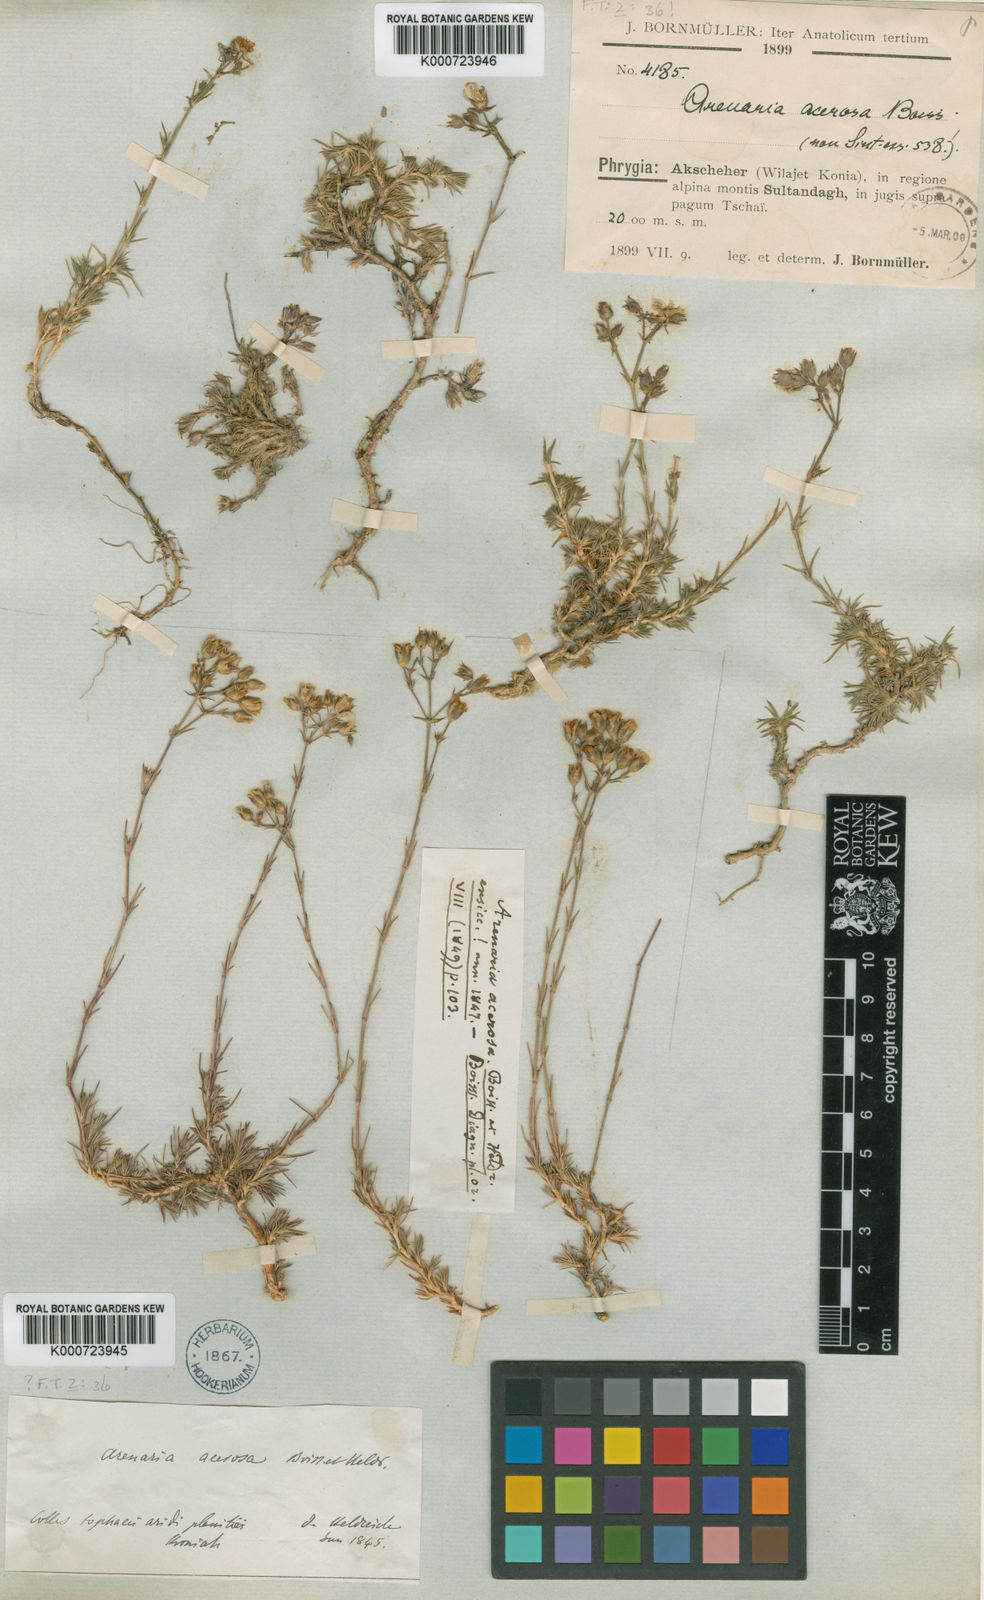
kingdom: Plantae
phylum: Tracheophyta
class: Magnoliopsida
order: Caryophyllales
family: Caryophyllaceae
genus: Eremogone
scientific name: Eremogone acerosa
